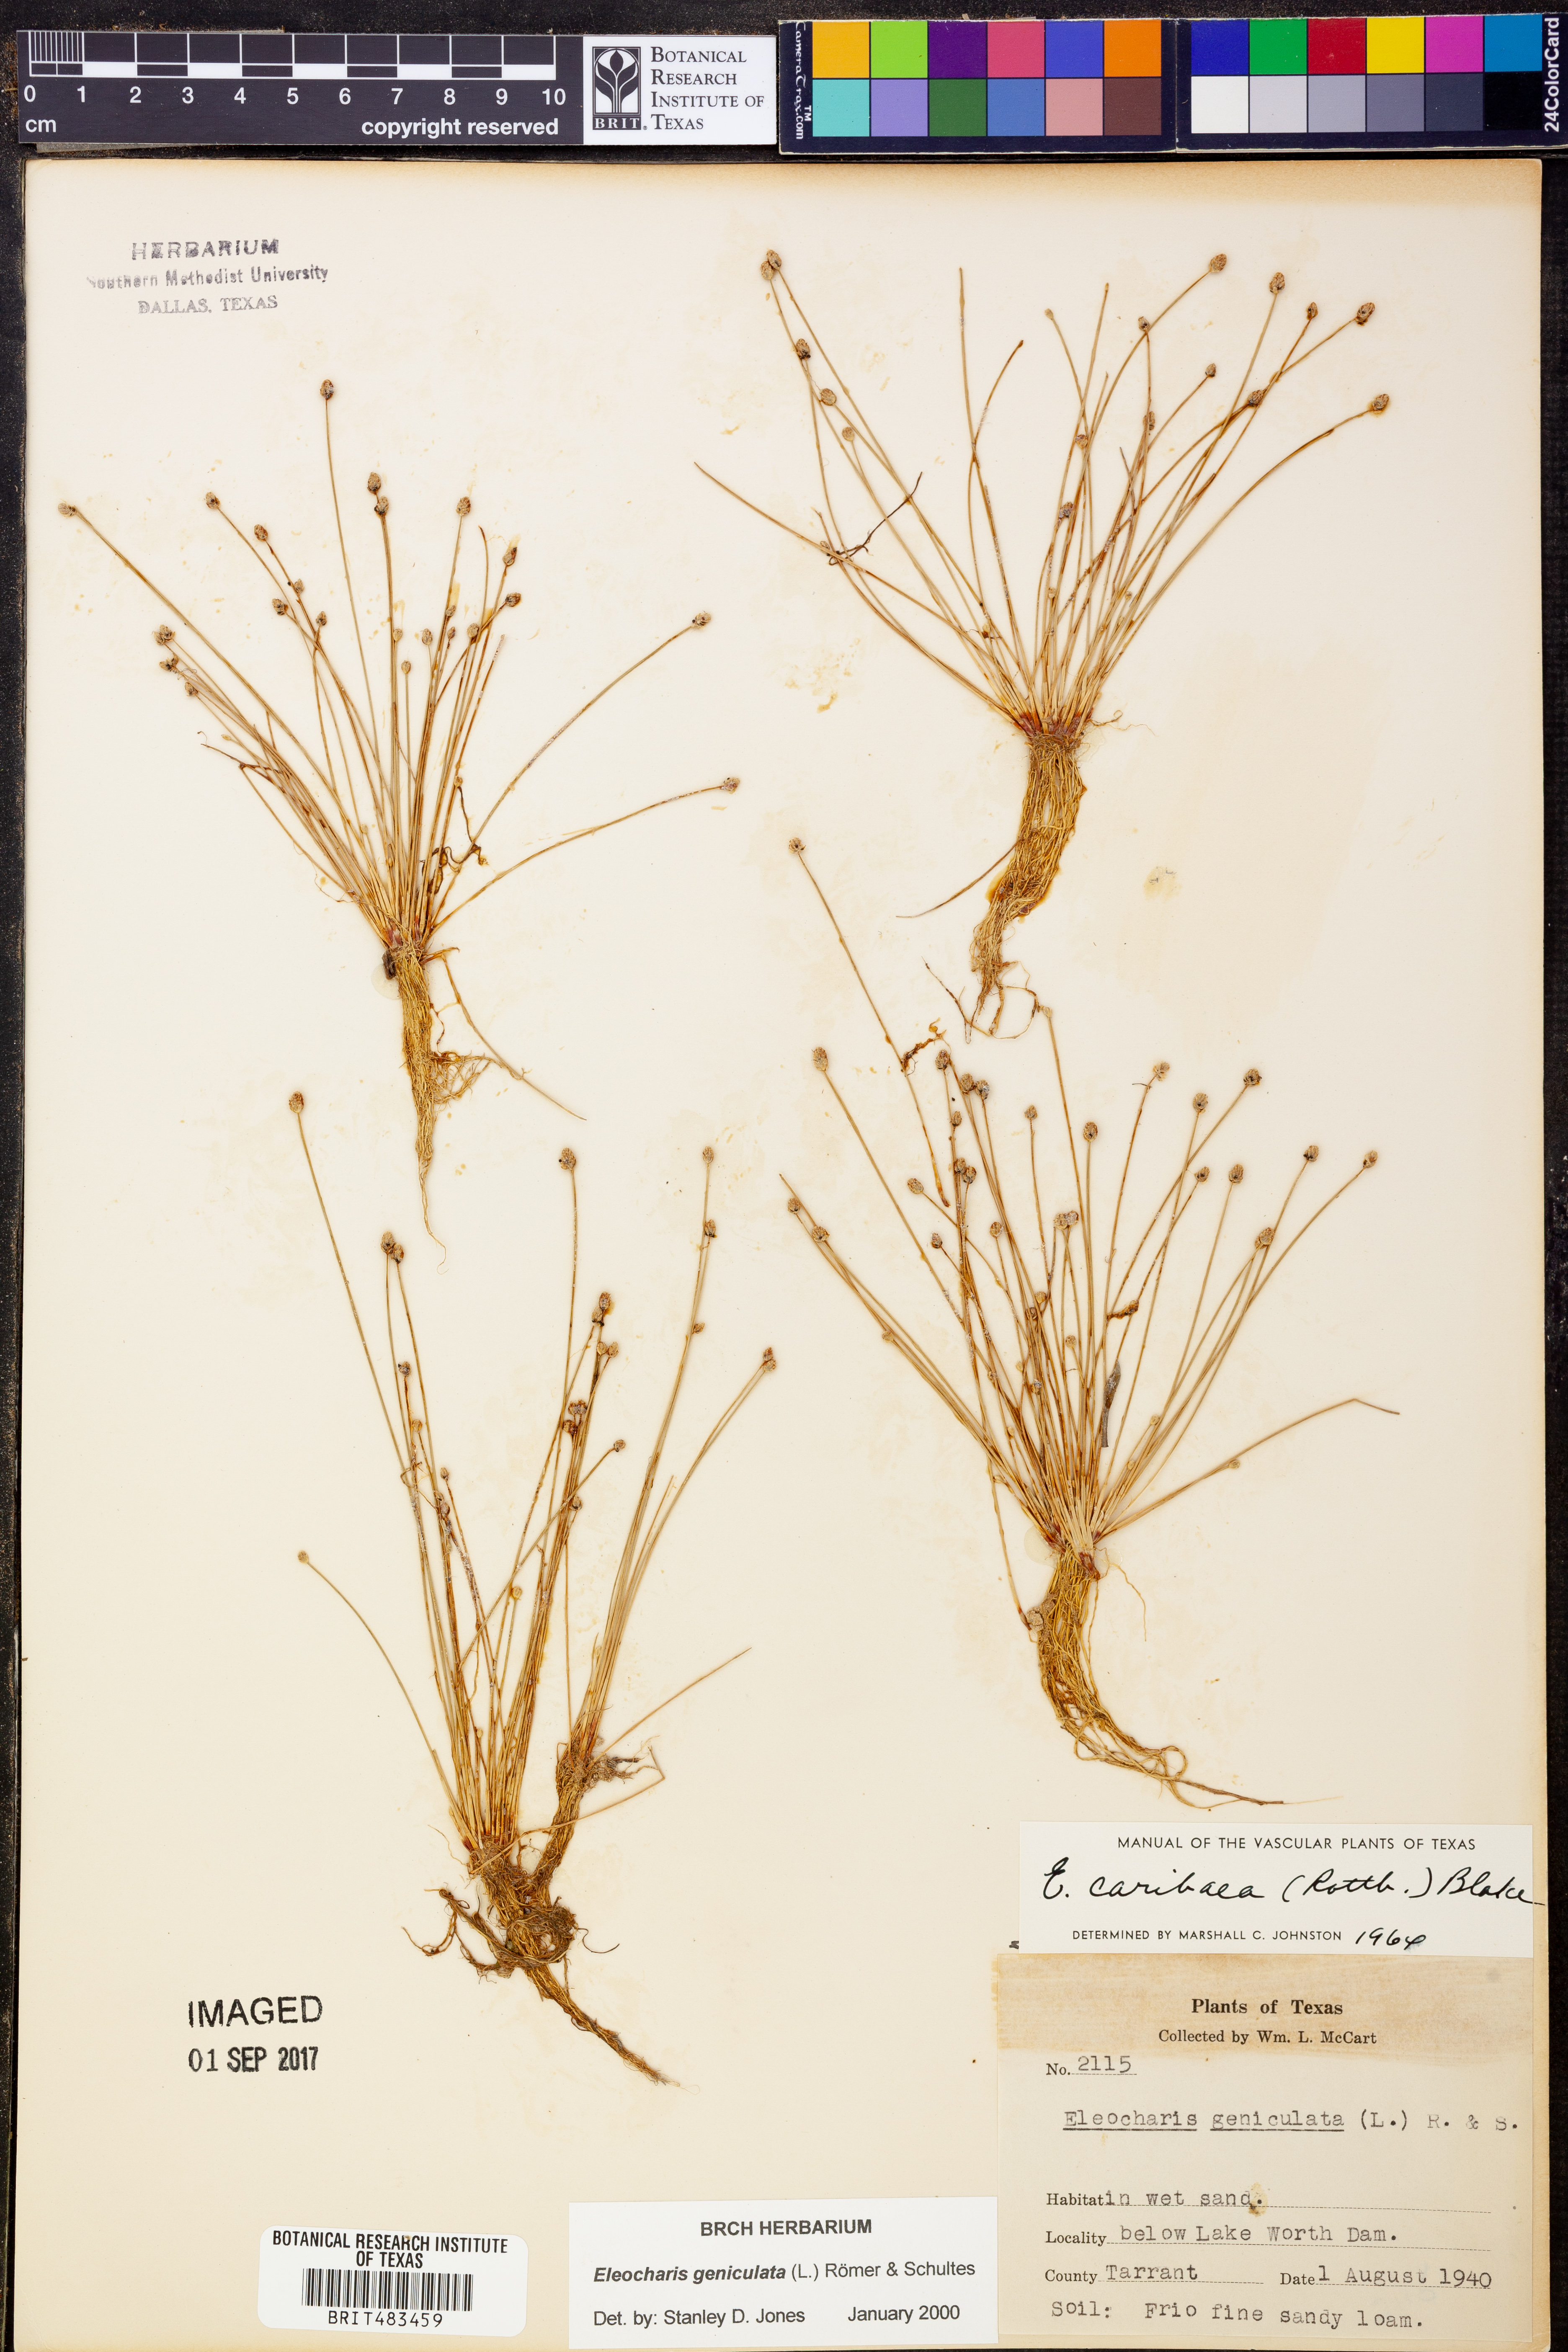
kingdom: Plantae
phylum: Tracheophyta
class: Liliopsida
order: Poales
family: Cyperaceae
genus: Eleocharis
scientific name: Eleocharis geniculata
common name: Canada spikesedge
